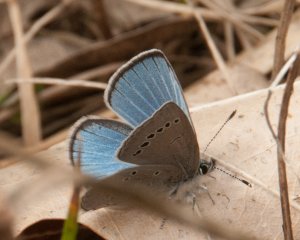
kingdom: Animalia
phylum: Arthropoda
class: Insecta
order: Lepidoptera
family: Lycaenidae
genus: Glaucopsyche
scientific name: Glaucopsyche lygdamus
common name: Silvery Blue
